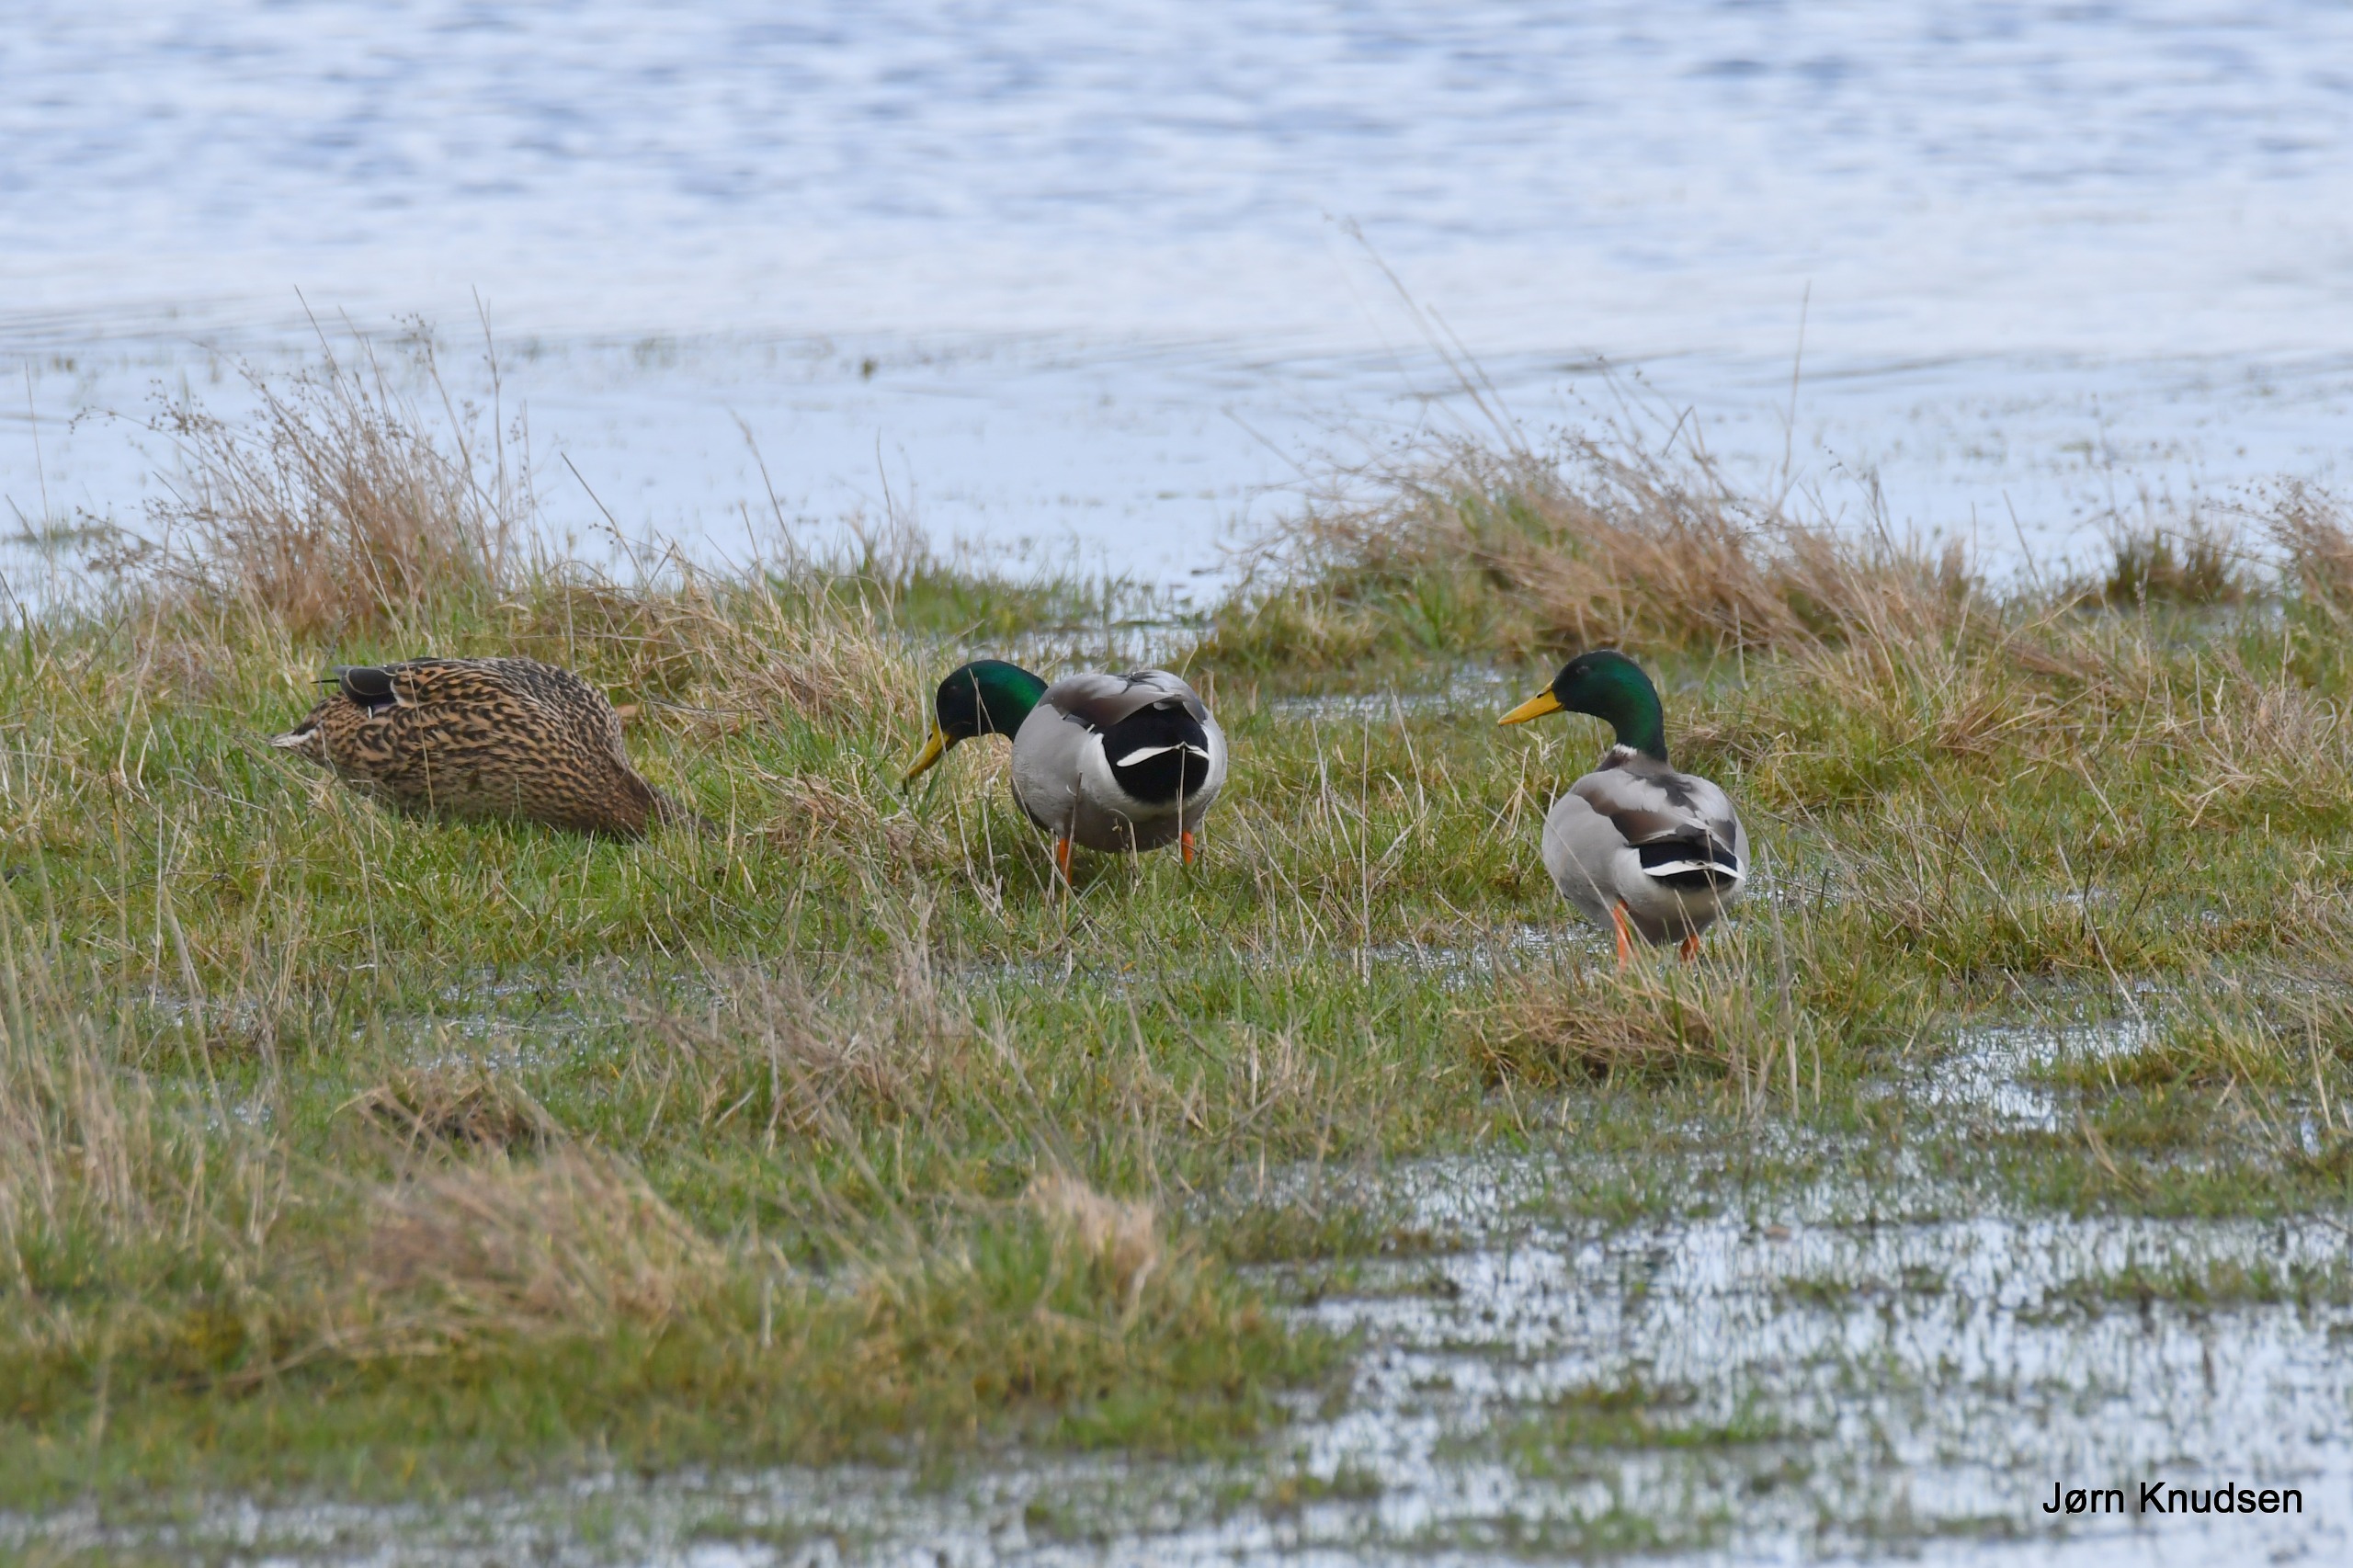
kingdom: Animalia
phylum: Chordata
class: Aves
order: Anseriformes
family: Anatidae
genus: Anas
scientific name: Anas platyrhynchos
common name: Gråand
